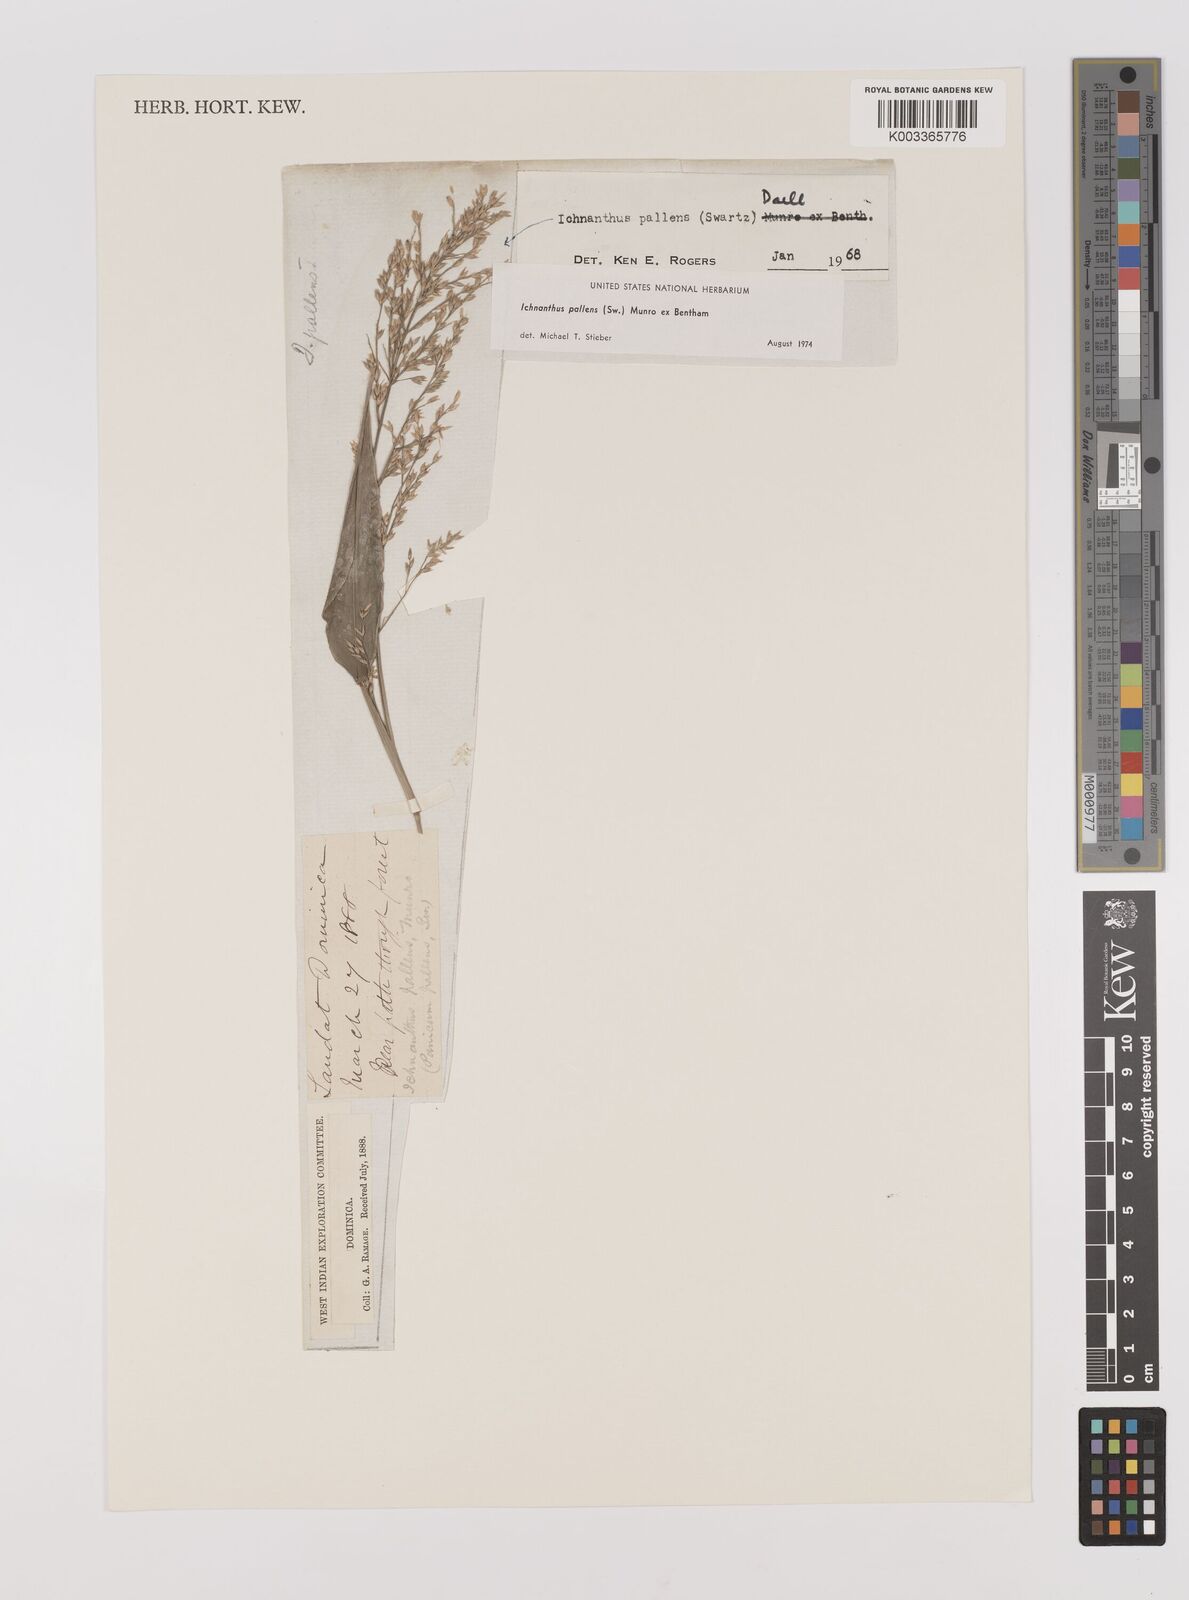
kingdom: Plantae
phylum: Tracheophyta
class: Liliopsida
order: Poales
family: Poaceae
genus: Ichnanthus
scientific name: Ichnanthus pallens
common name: Water grass
